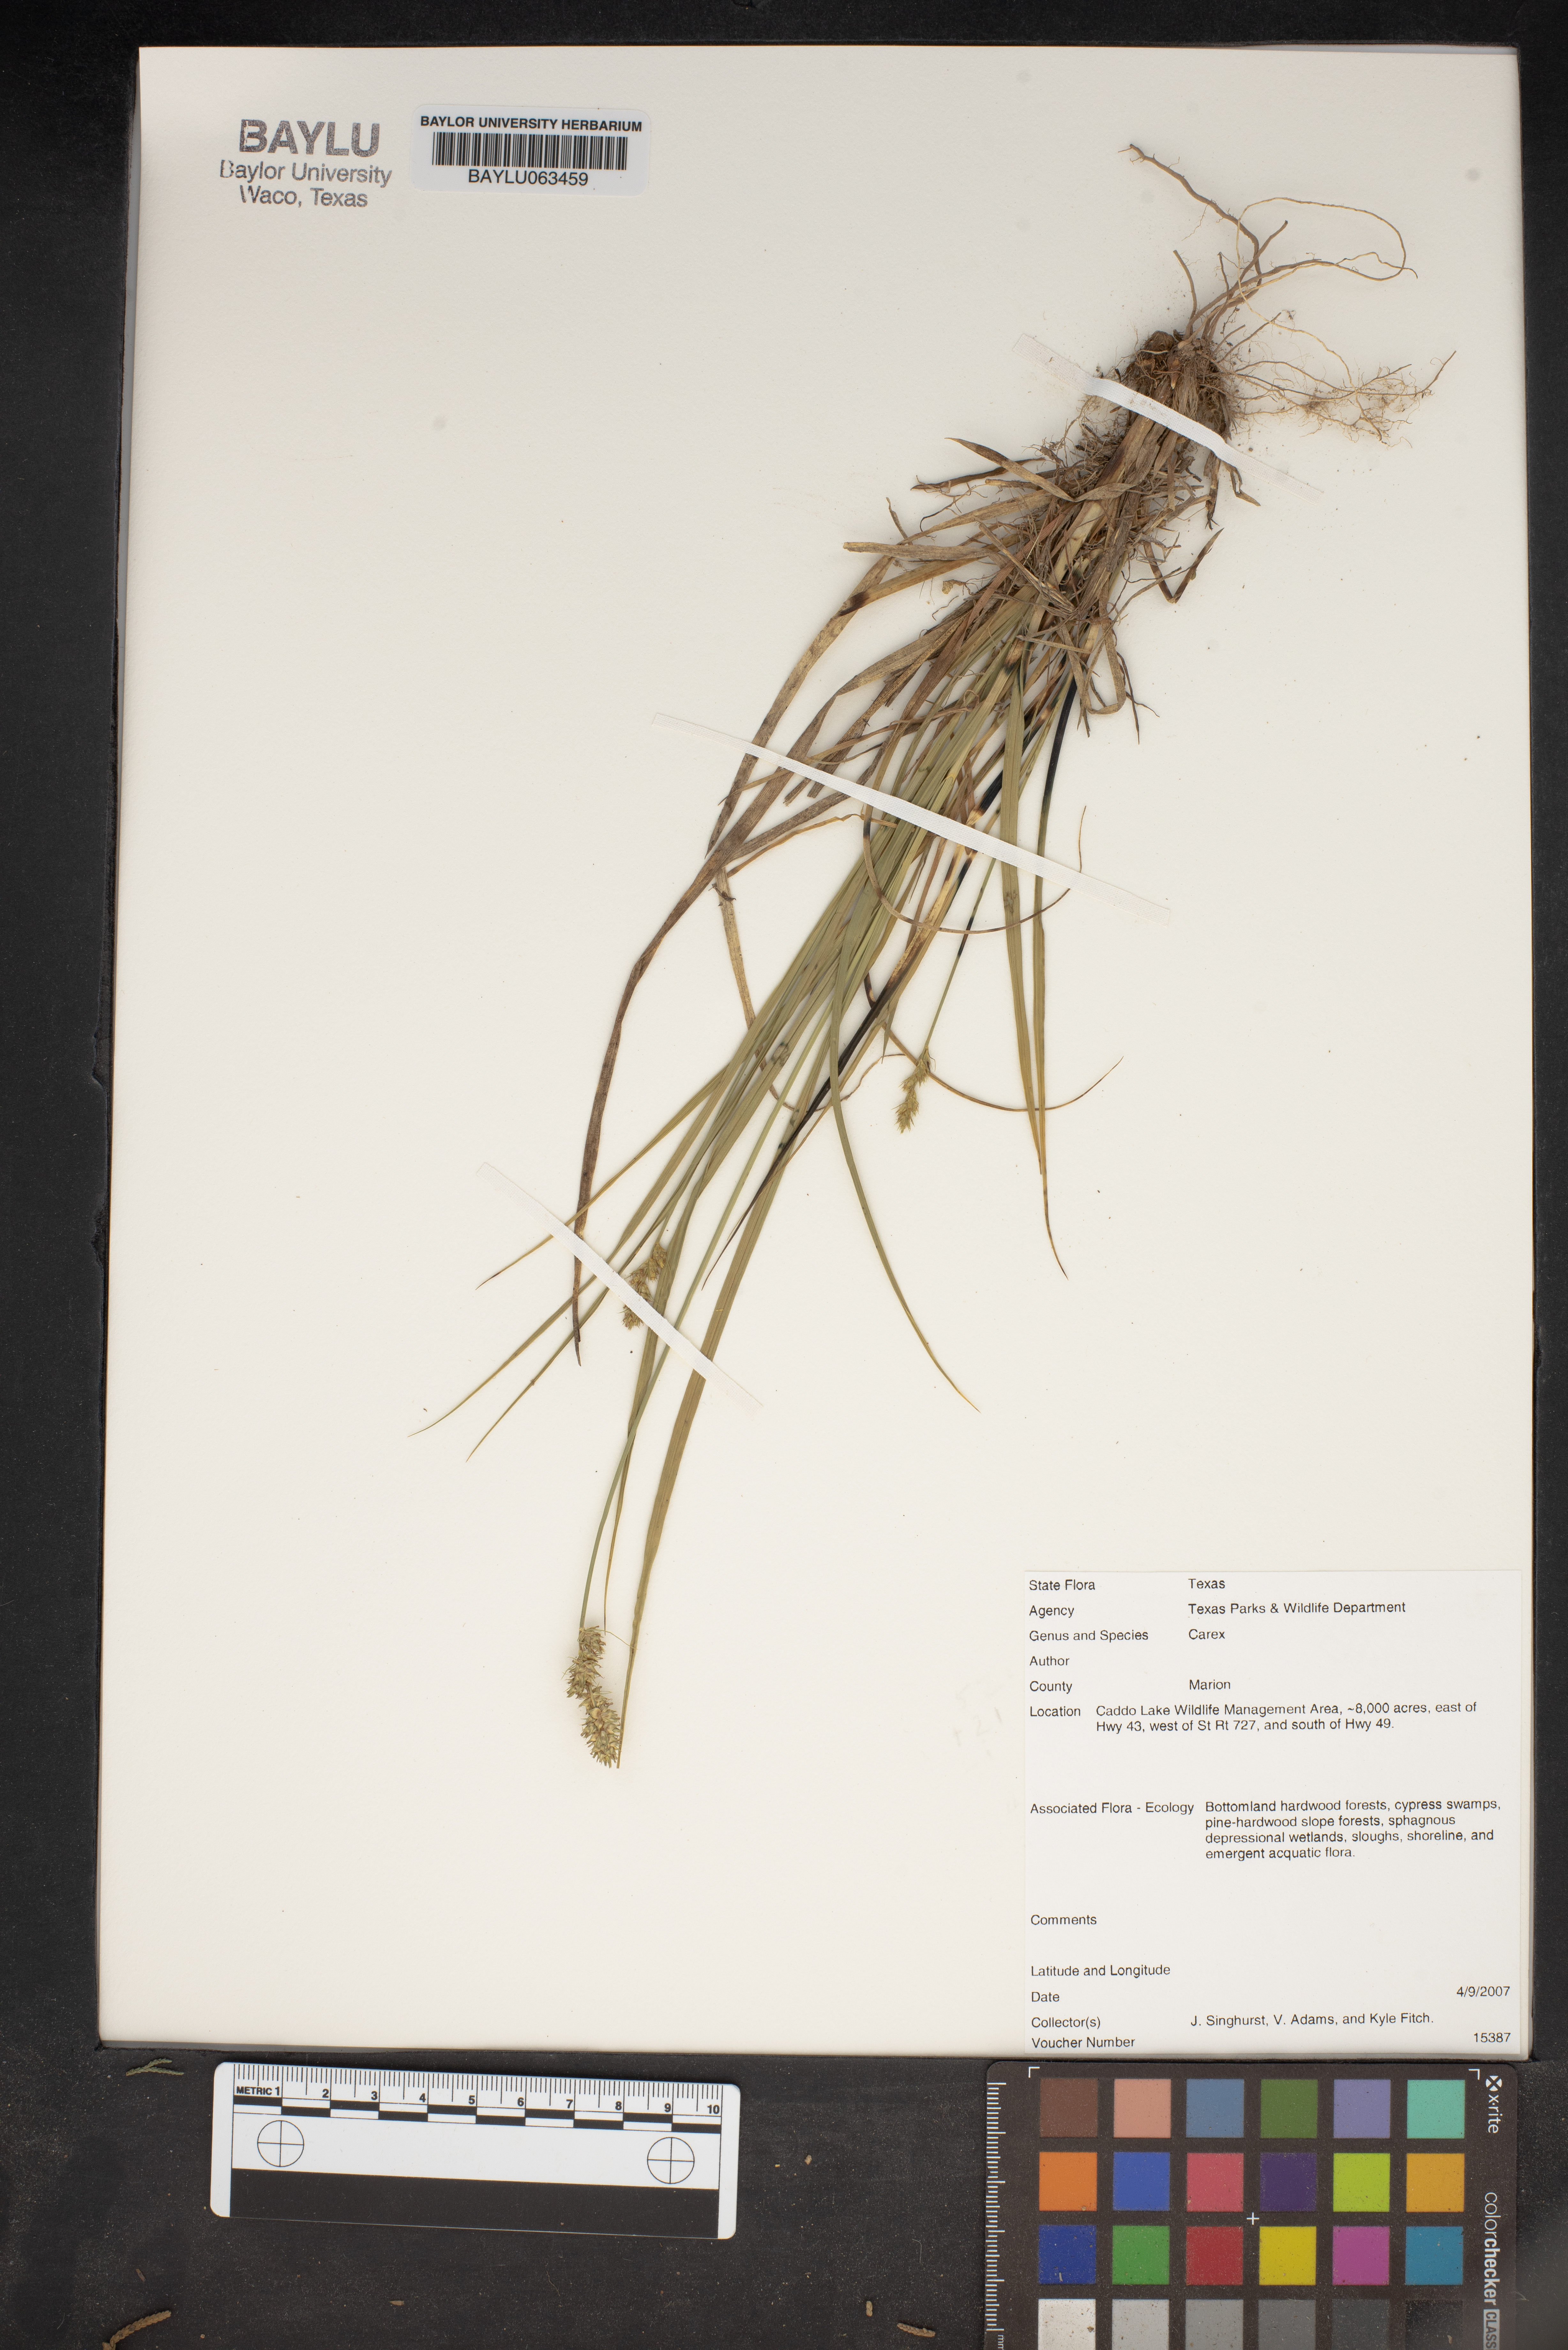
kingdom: Plantae
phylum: Tracheophyta
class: Liliopsida
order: Poales
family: Cyperaceae
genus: Carex
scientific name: Carex
